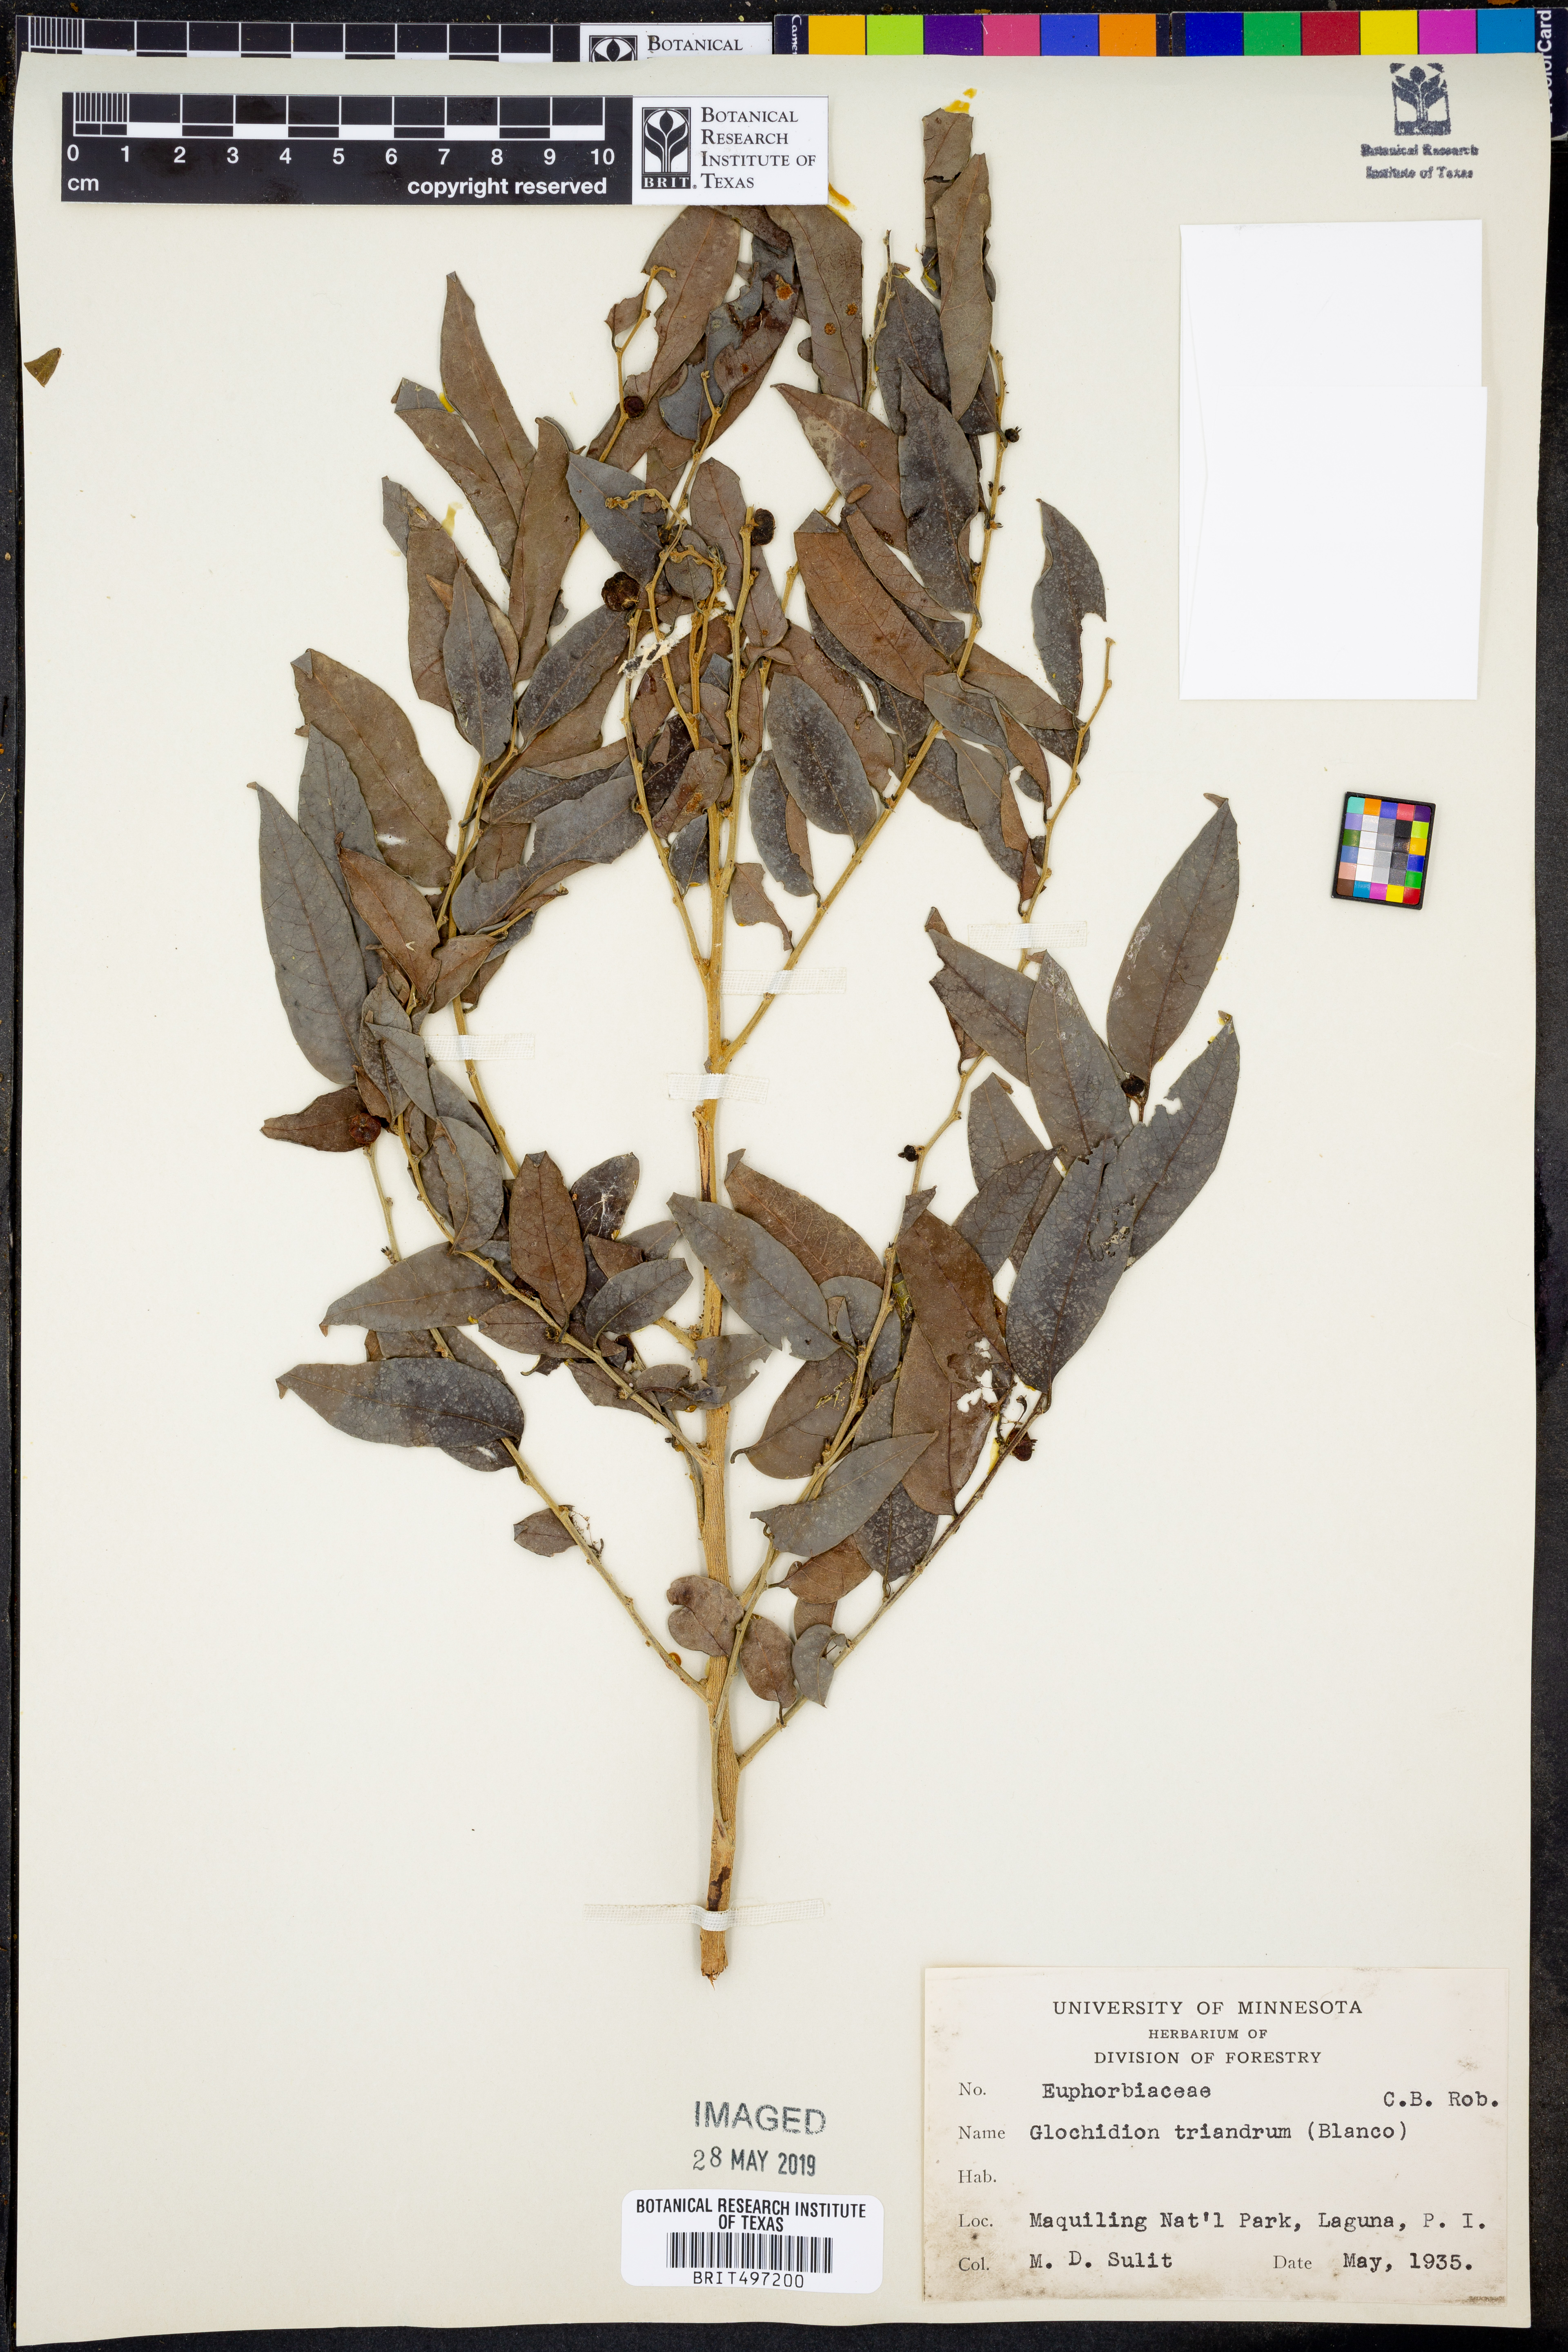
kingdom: Plantae
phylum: Tracheophyta
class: Magnoliopsida
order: Malpighiales
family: Phyllanthaceae
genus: Glochidion
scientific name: Glochidion triandrum
